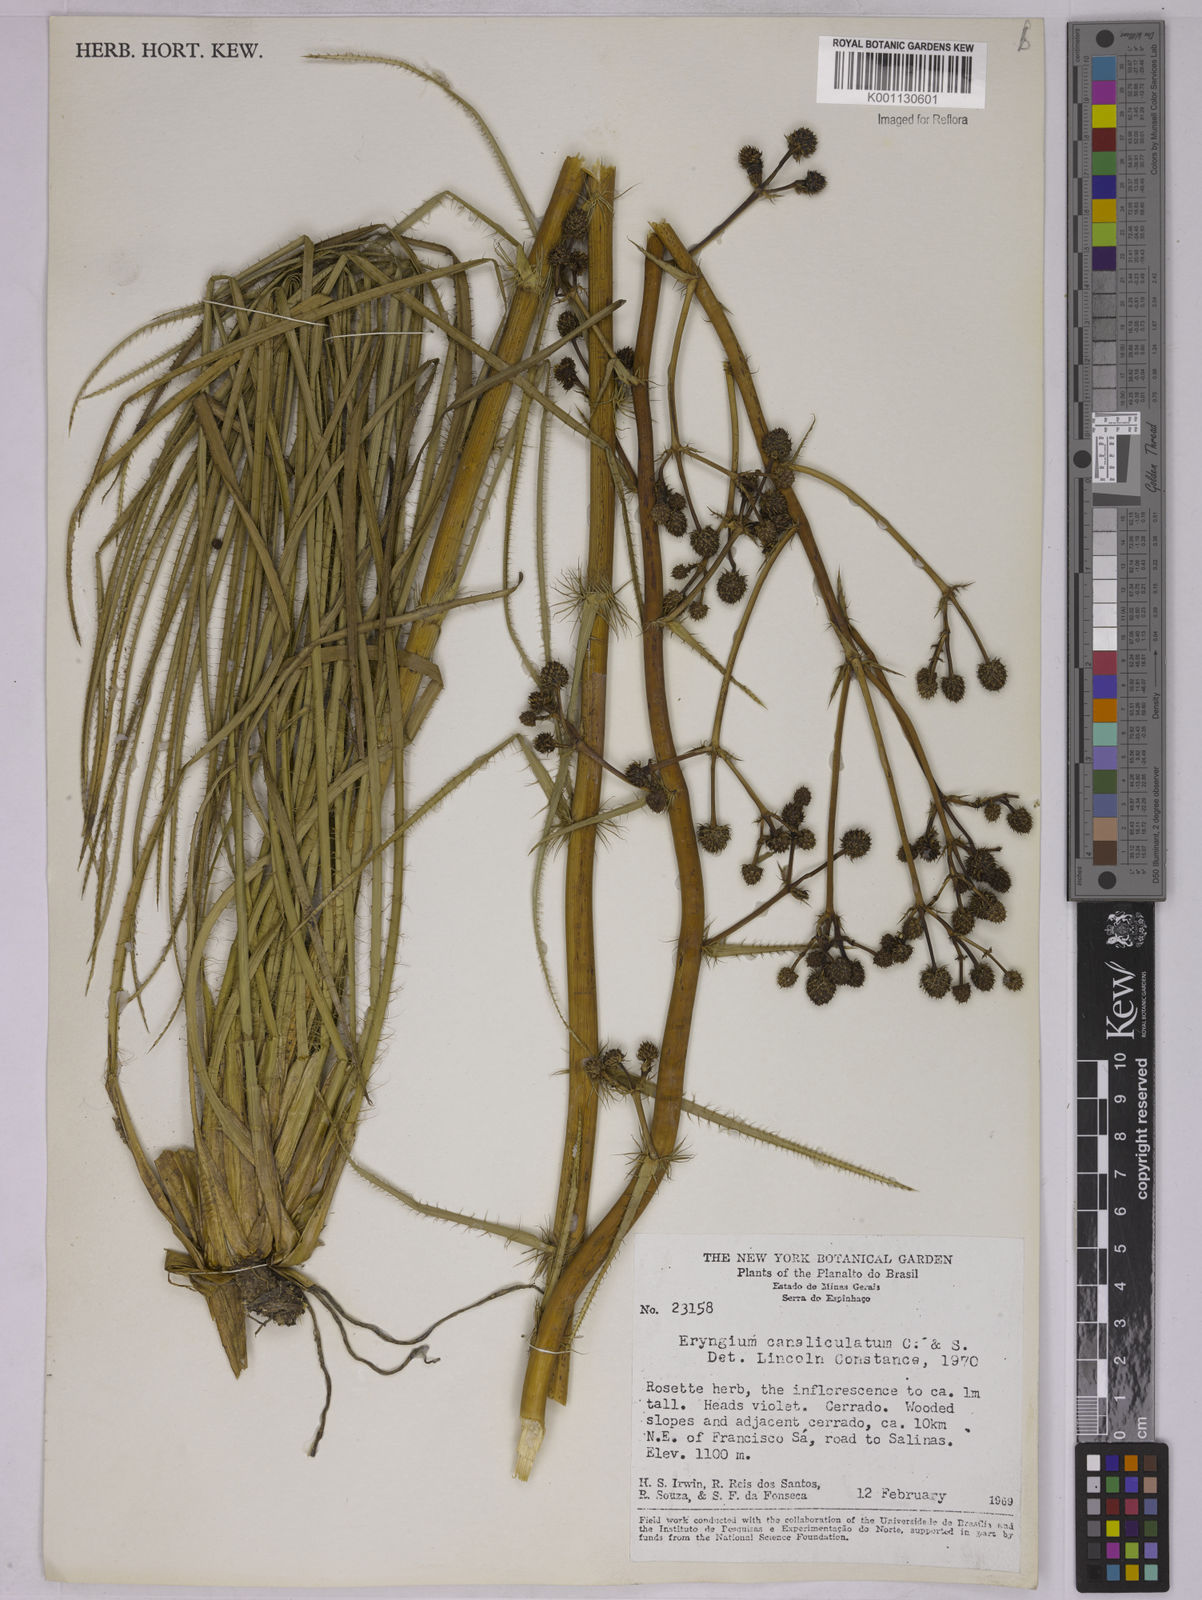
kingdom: Plantae
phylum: Tracheophyta
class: Magnoliopsida
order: Apiales
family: Apiaceae
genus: Eryngium
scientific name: Eryngium canaliculatum
